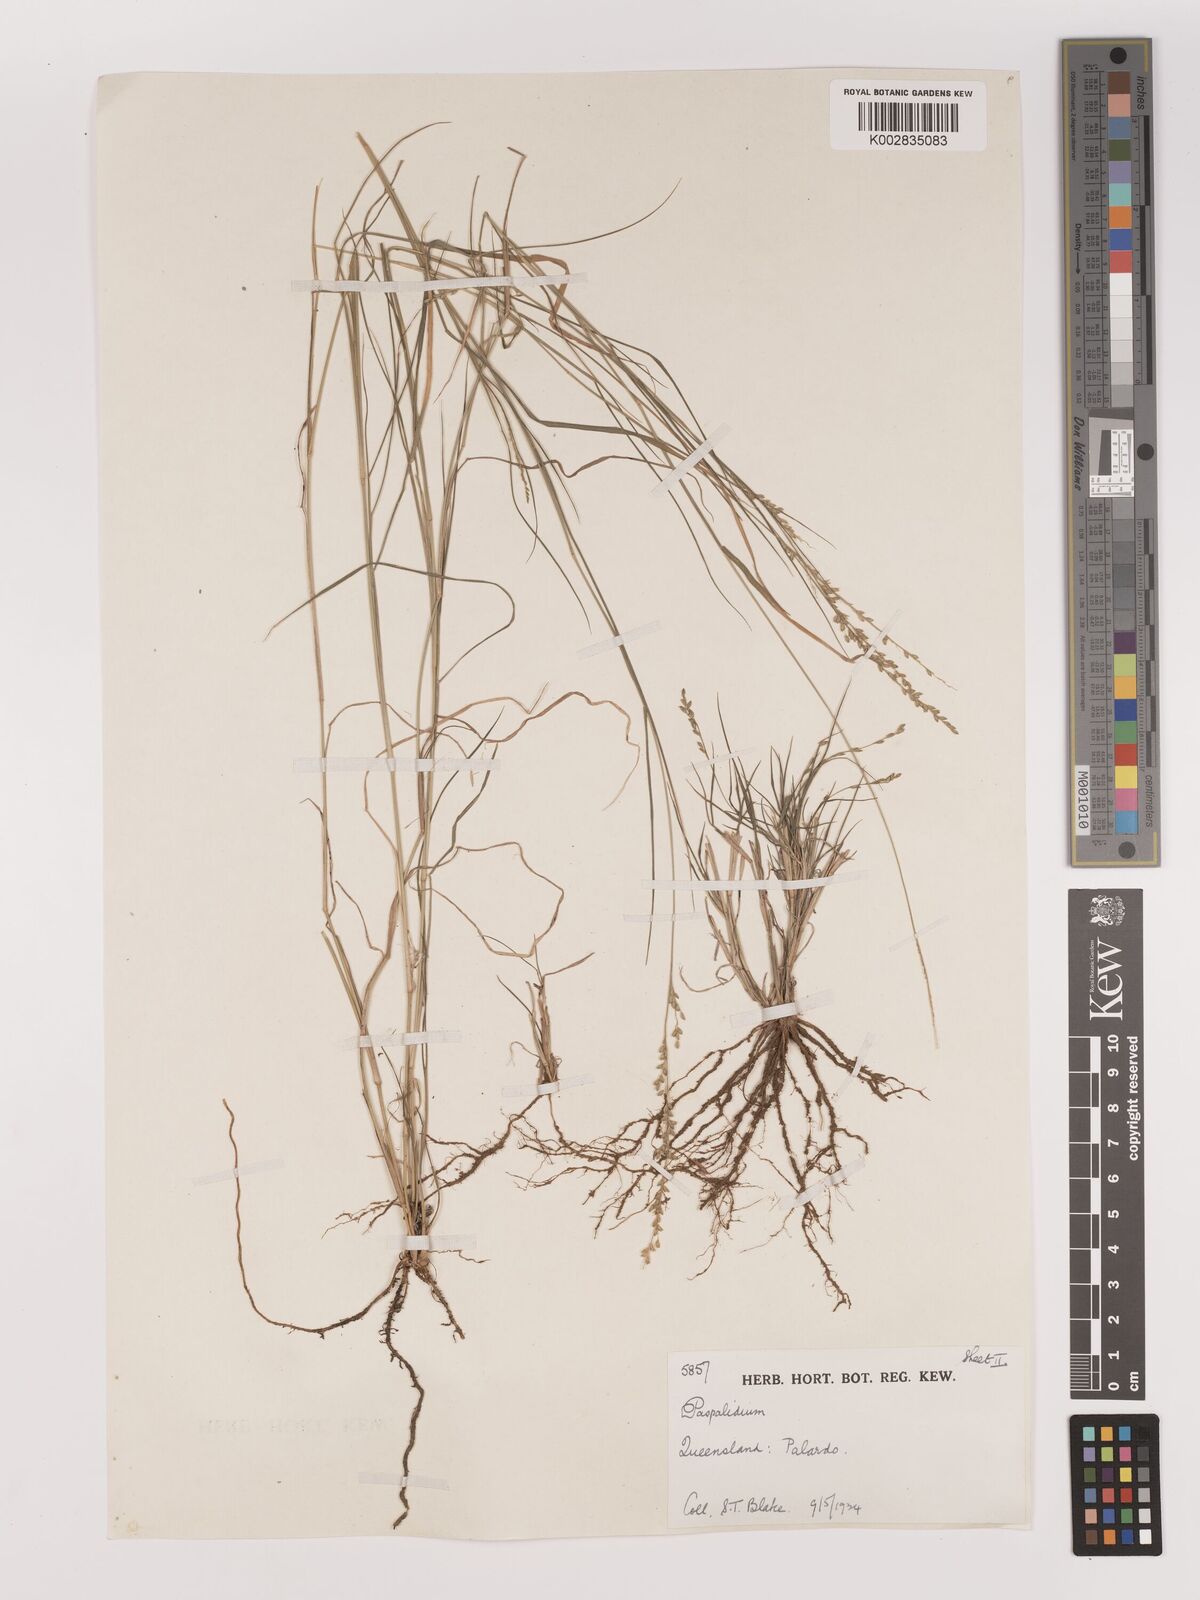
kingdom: Plantae
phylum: Tracheophyta
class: Liliopsida
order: Poales
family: Poaceae
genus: Setaria
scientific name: Setaria
